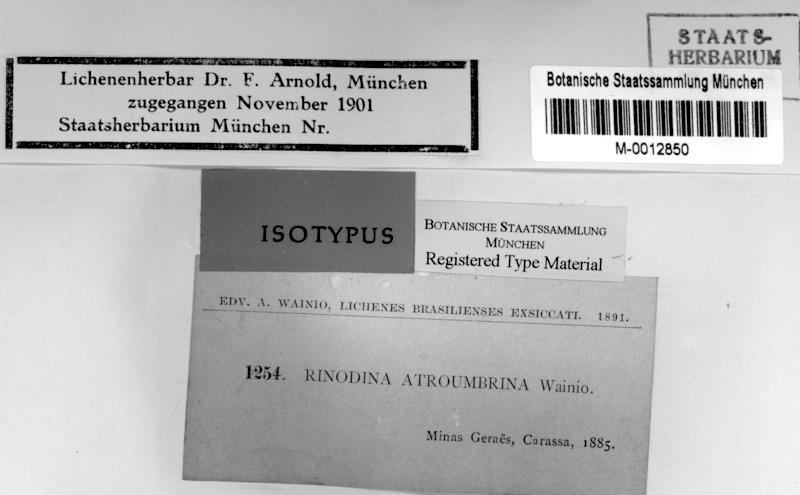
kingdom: Fungi
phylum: Ascomycota
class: Lecanoromycetes
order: Caliciales
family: Physciaceae
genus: Rinodina
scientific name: Rinodina
